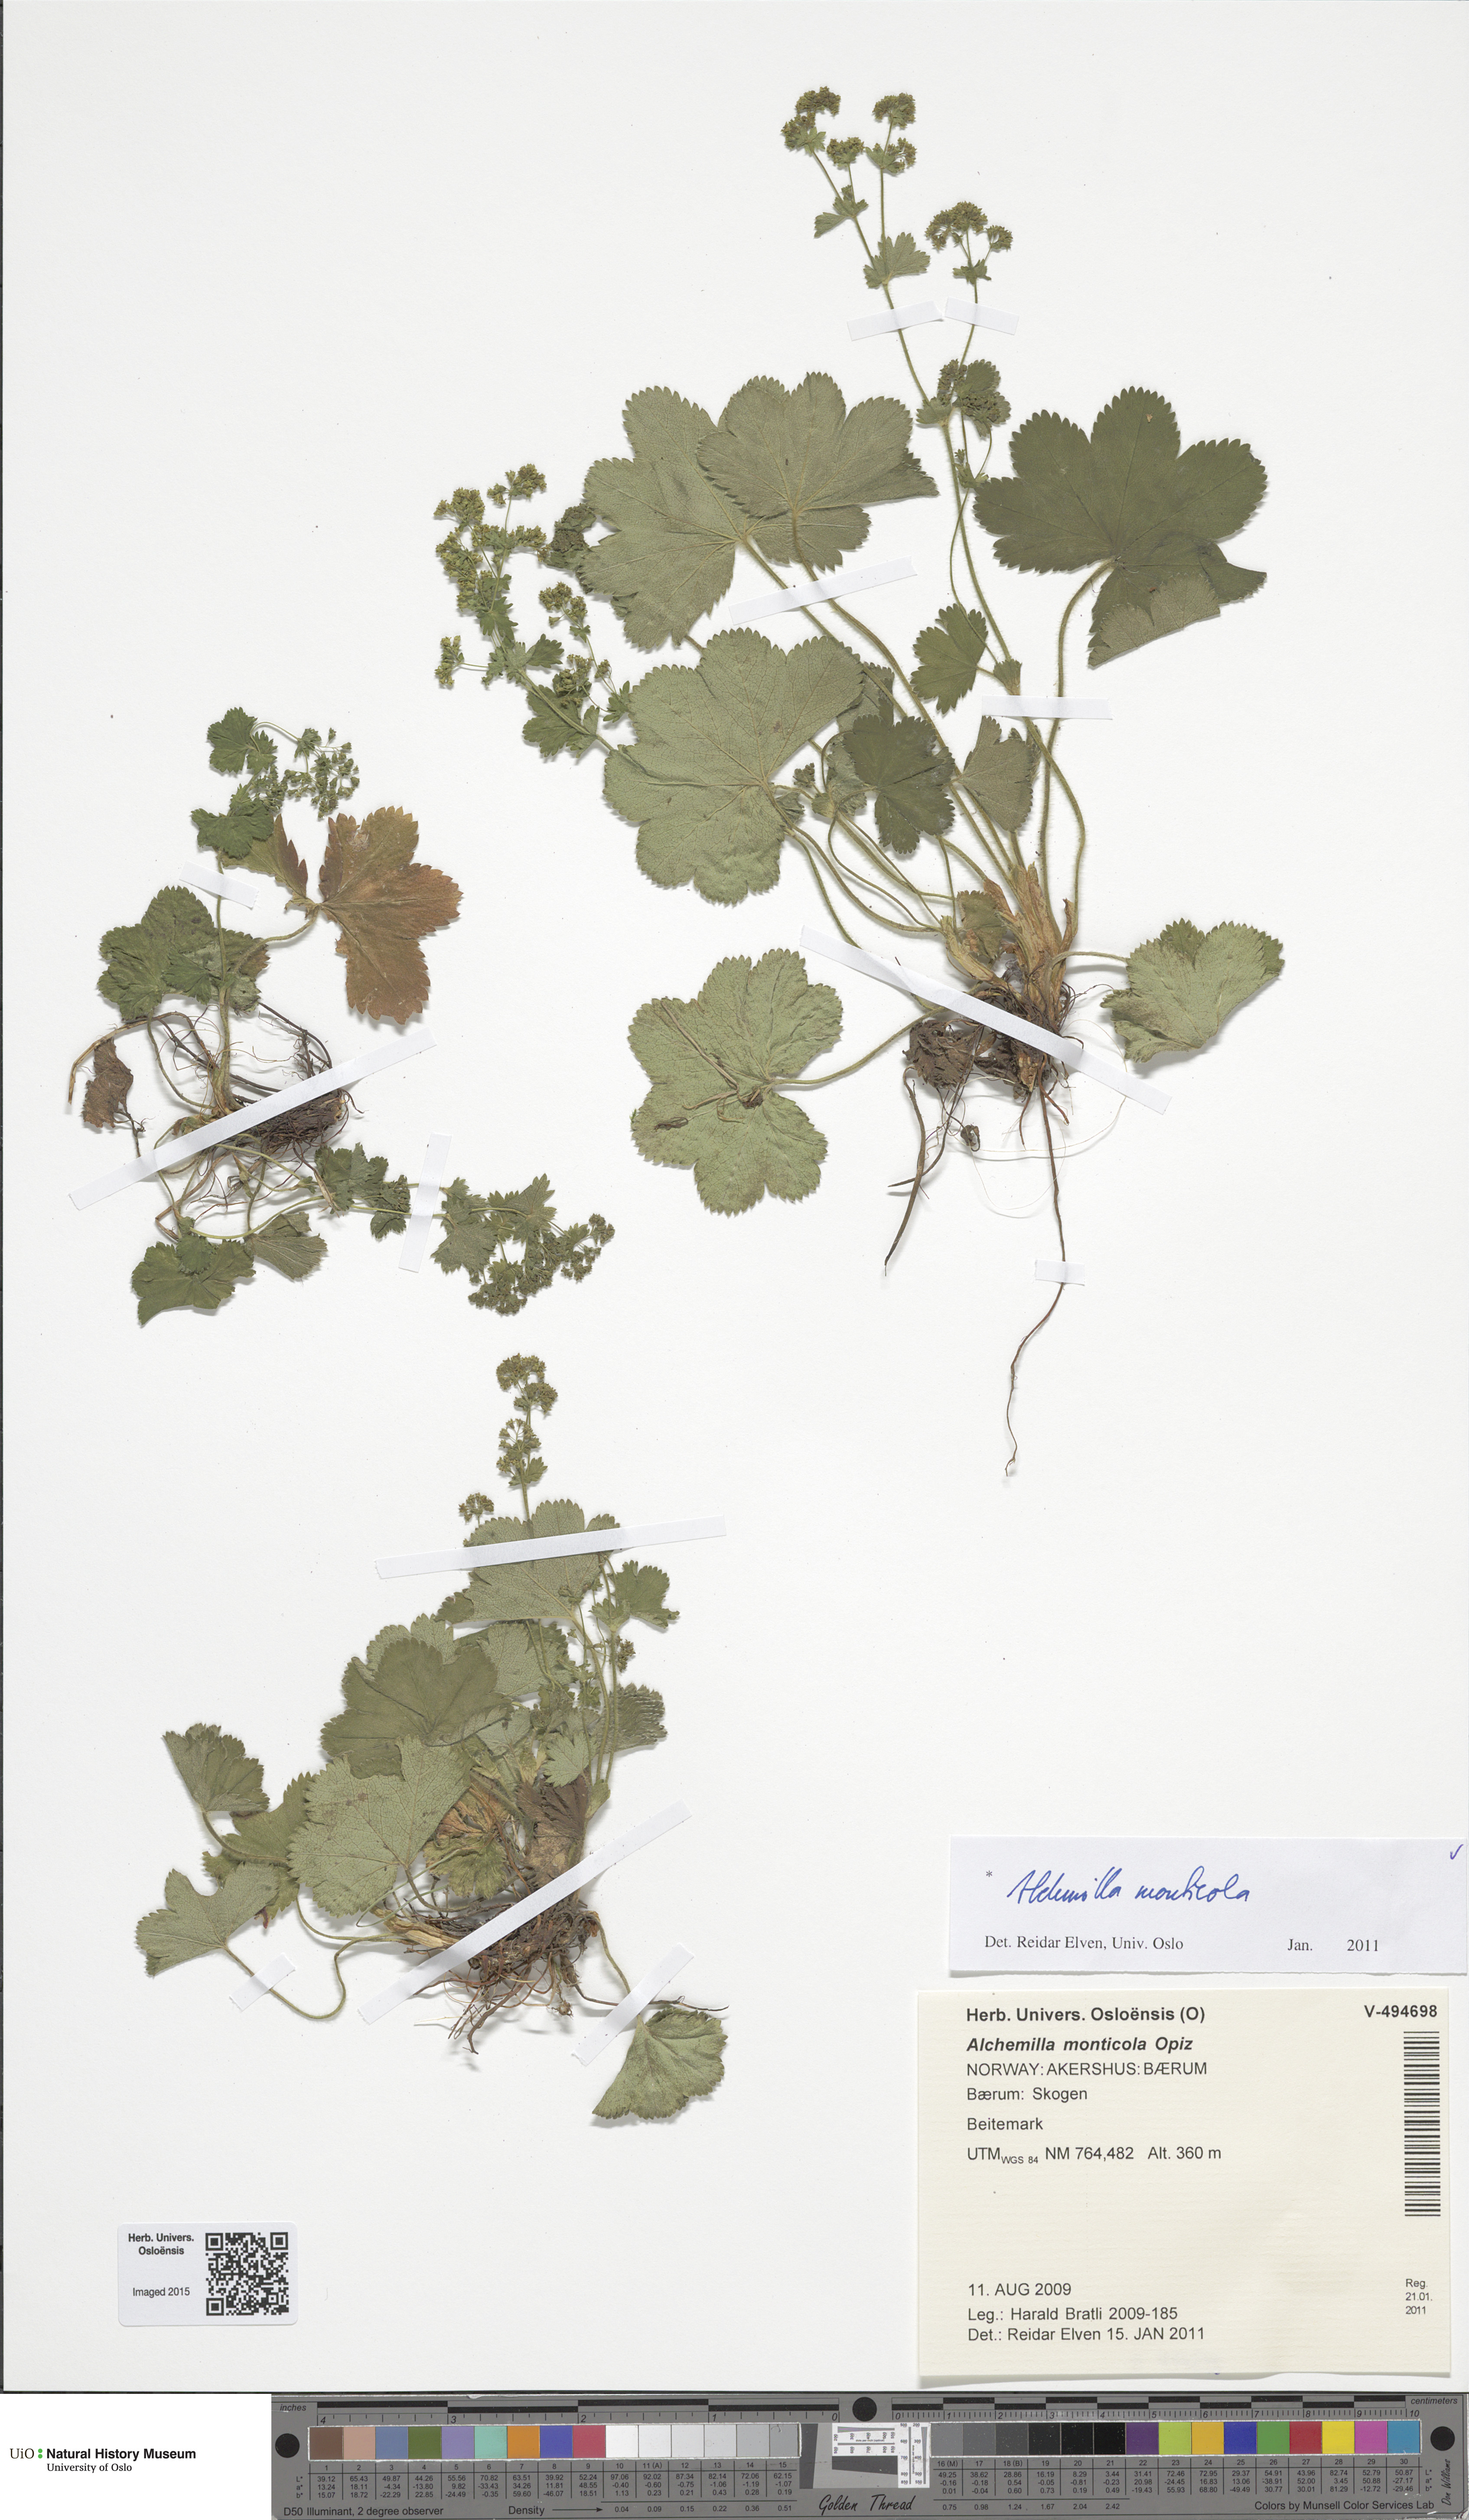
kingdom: Plantae
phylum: Tracheophyta
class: Magnoliopsida
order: Rosales
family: Rosaceae
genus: Alchemilla
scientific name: Alchemilla monticola
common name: Hairy lady's mantle
